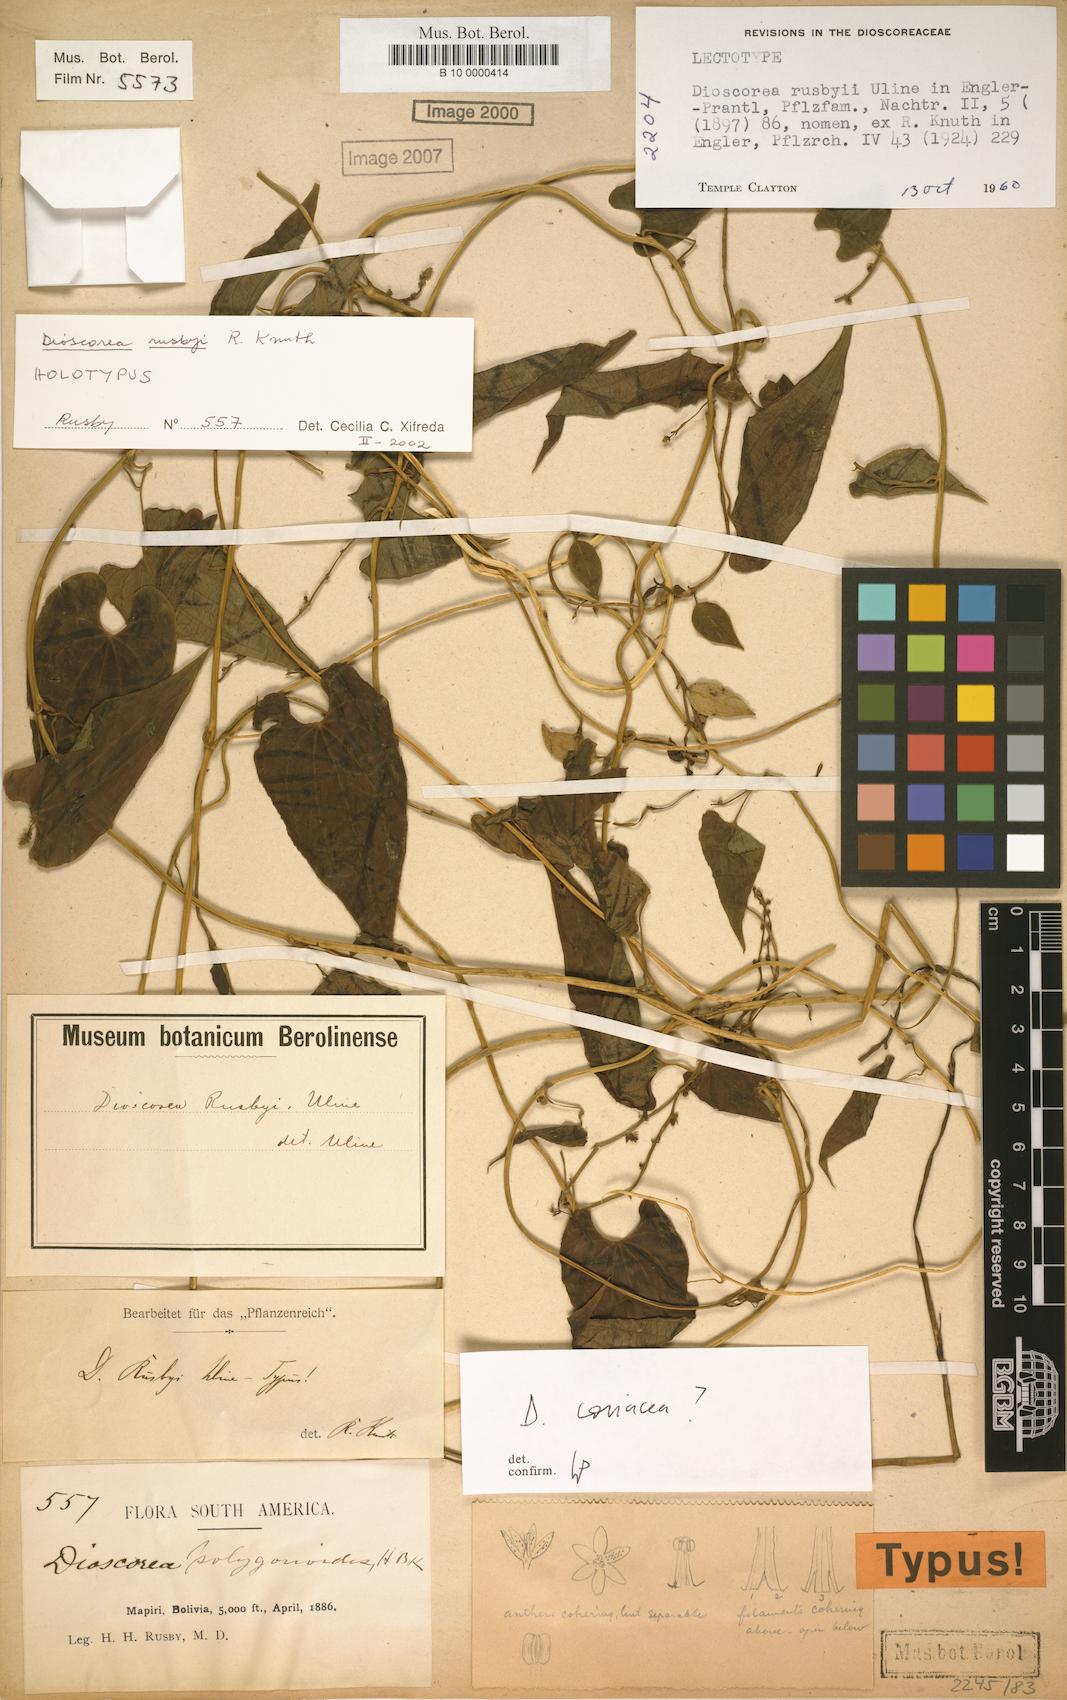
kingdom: Plantae
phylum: Tracheophyta
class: Liliopsida
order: Dioscoreales
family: Dioscoreaceae
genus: Dioscorea
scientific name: Dioscorea rusbyi
